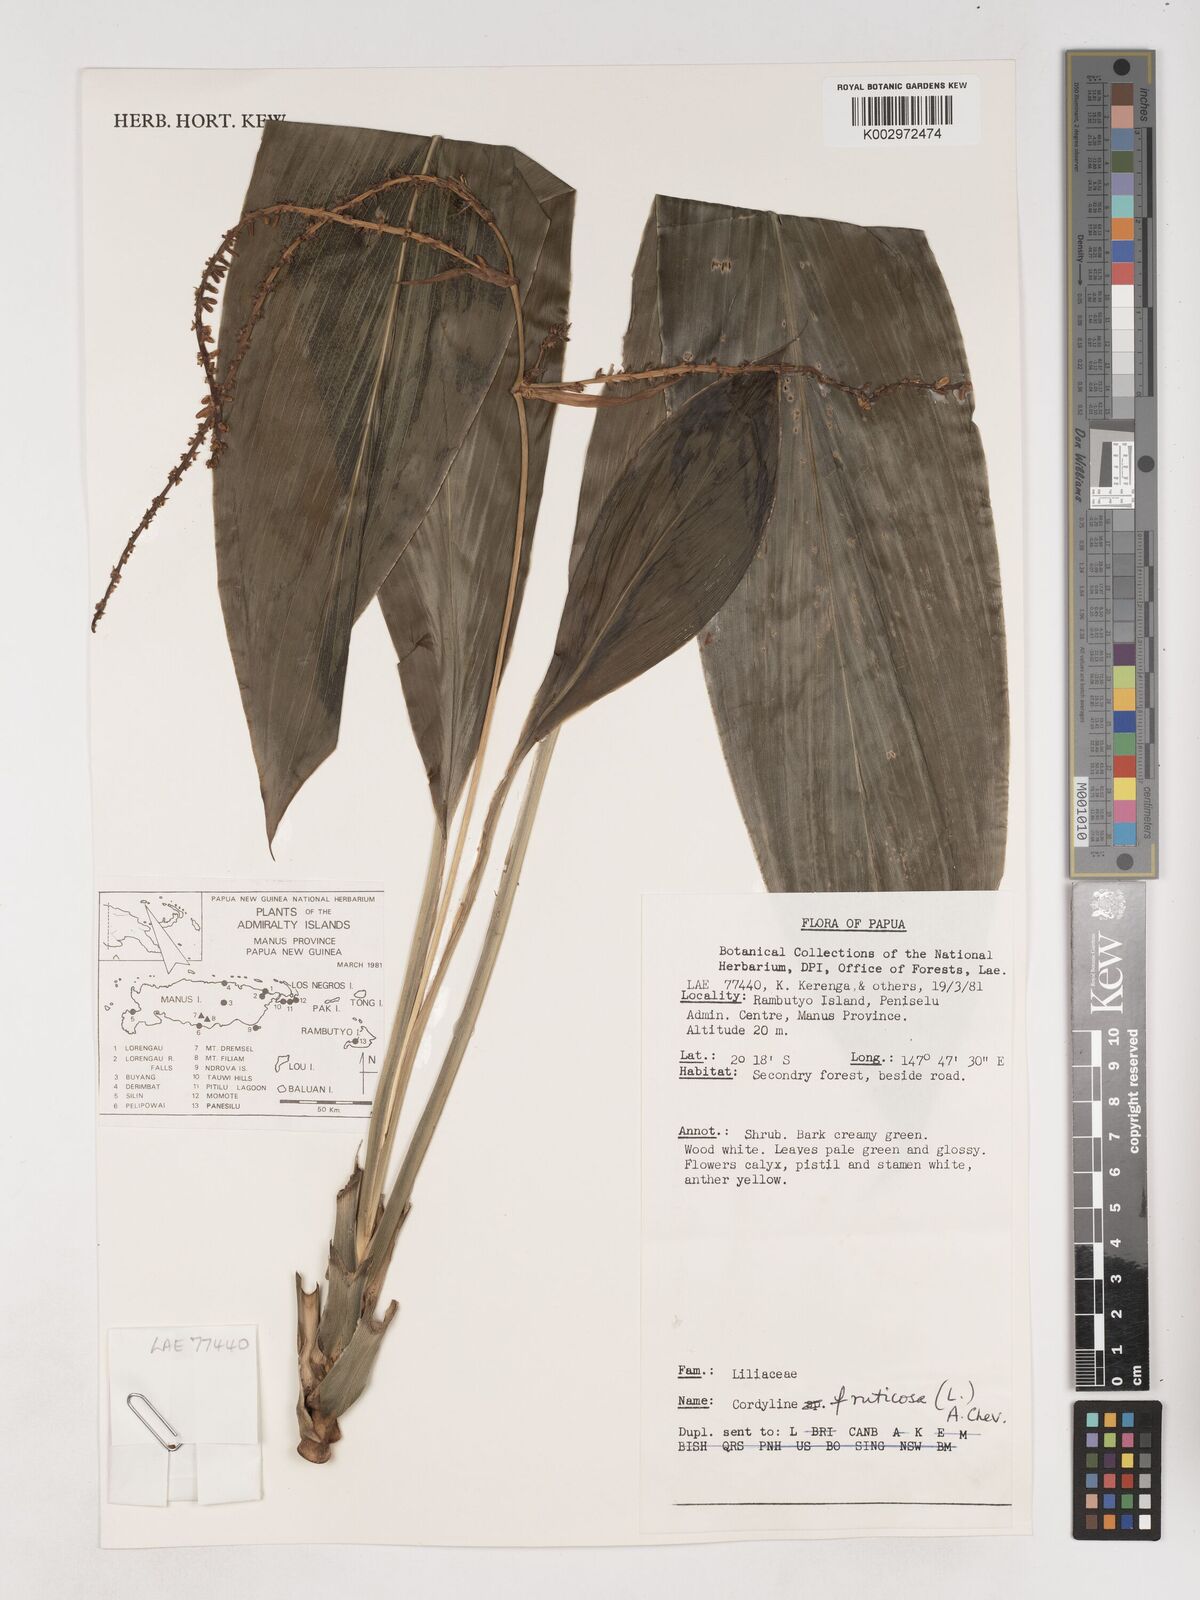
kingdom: Plantae
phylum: Tracheophyta
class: Liliopsida
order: Asparagales
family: Asparagaceae
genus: Cordyline
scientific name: Cordyline fruticosa
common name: Good-luck-plant
